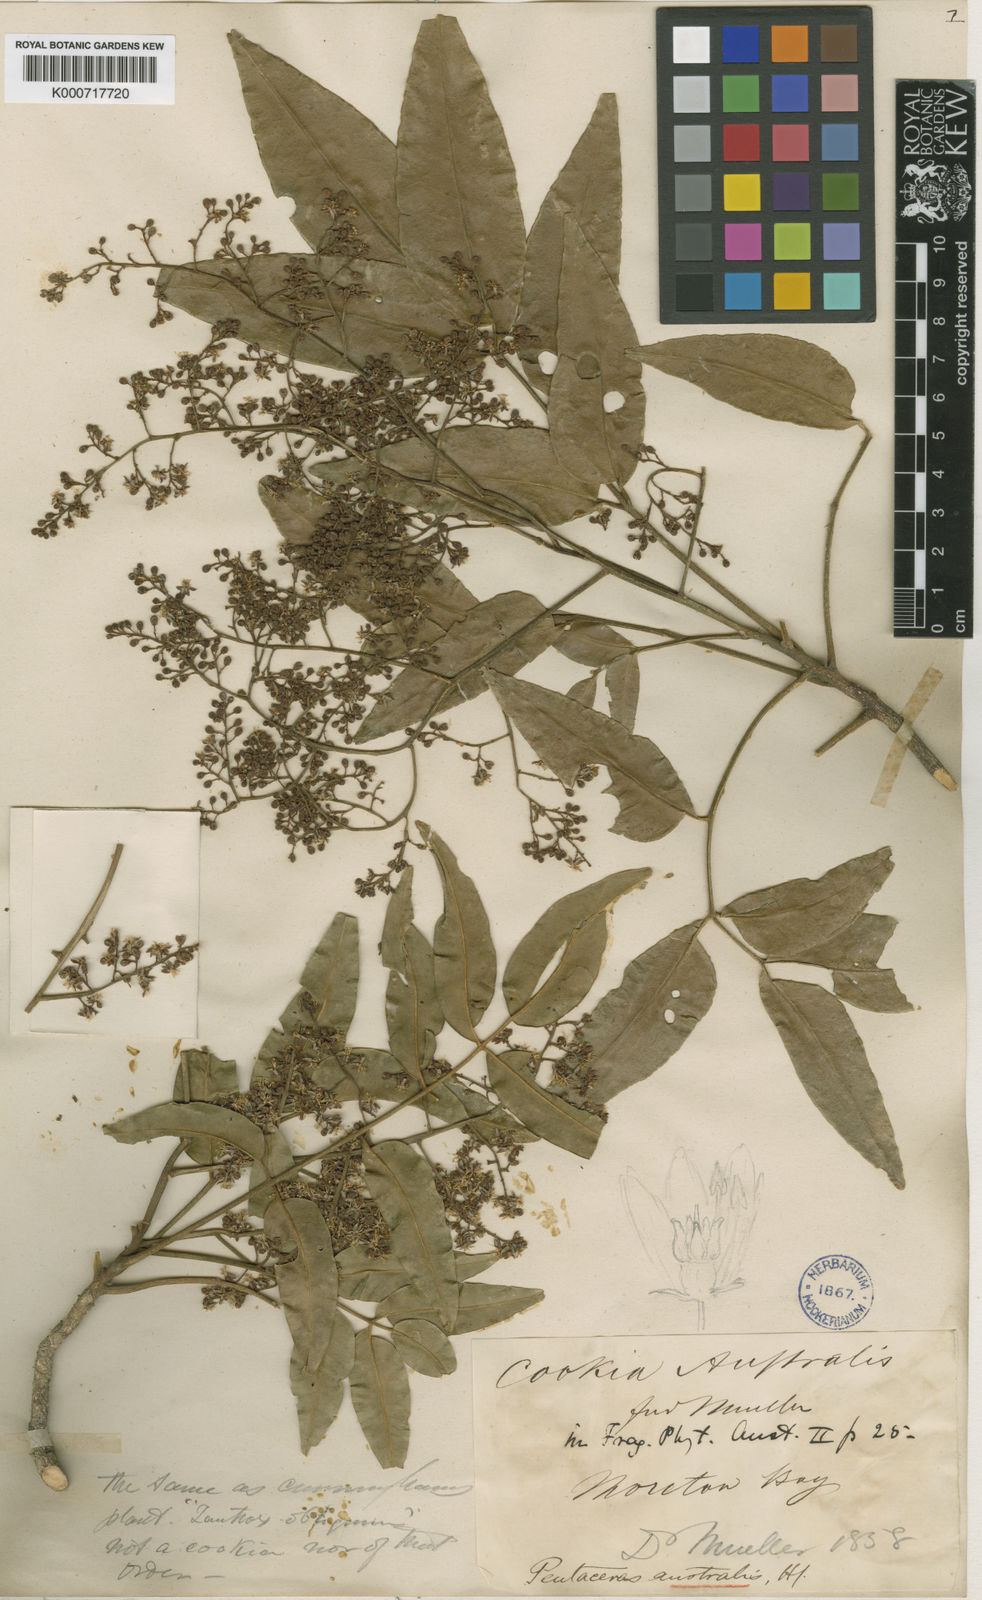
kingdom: Plantae
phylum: Tracheophyta
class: Magnoliopsida
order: Sapindales
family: Rutaceae
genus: Pentaceras
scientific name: Pentaceras
